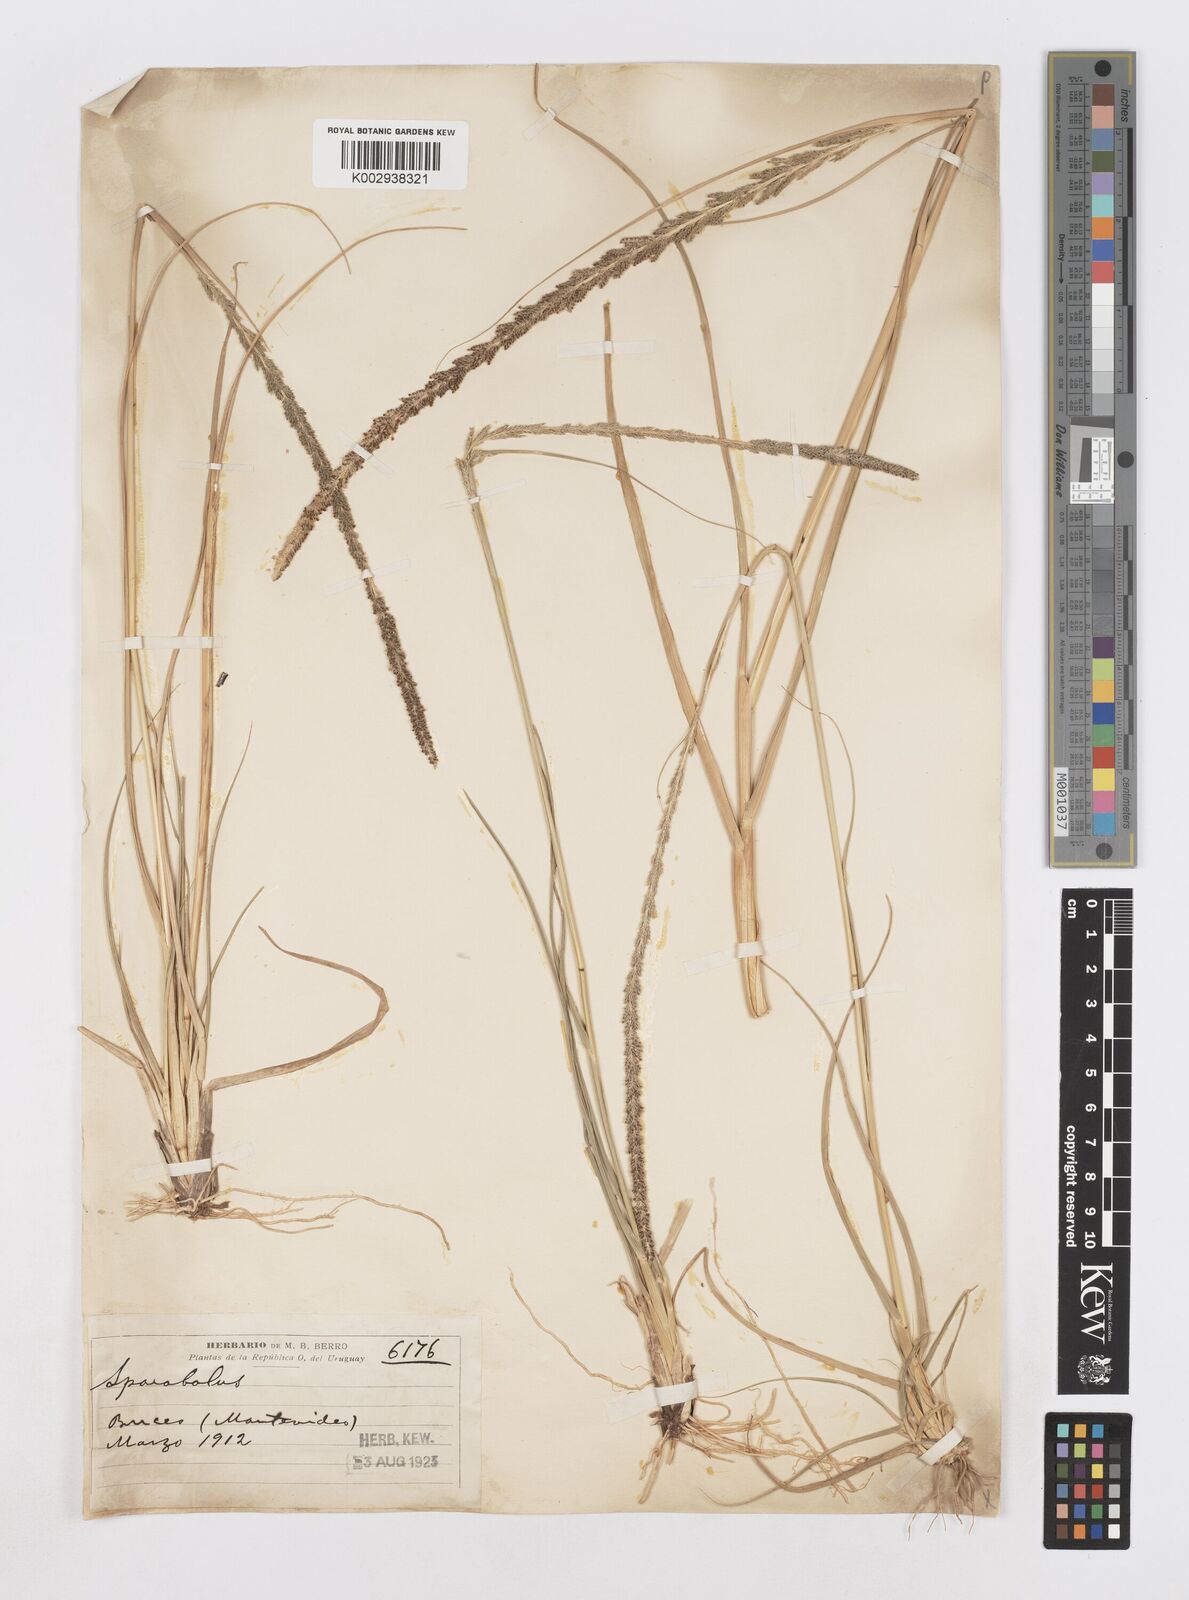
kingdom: Plantae
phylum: Tracheophyta
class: Liliopsida
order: Poales
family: Poaceae
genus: Sporobolus
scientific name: Sporobolus indicus
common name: Smut grass
